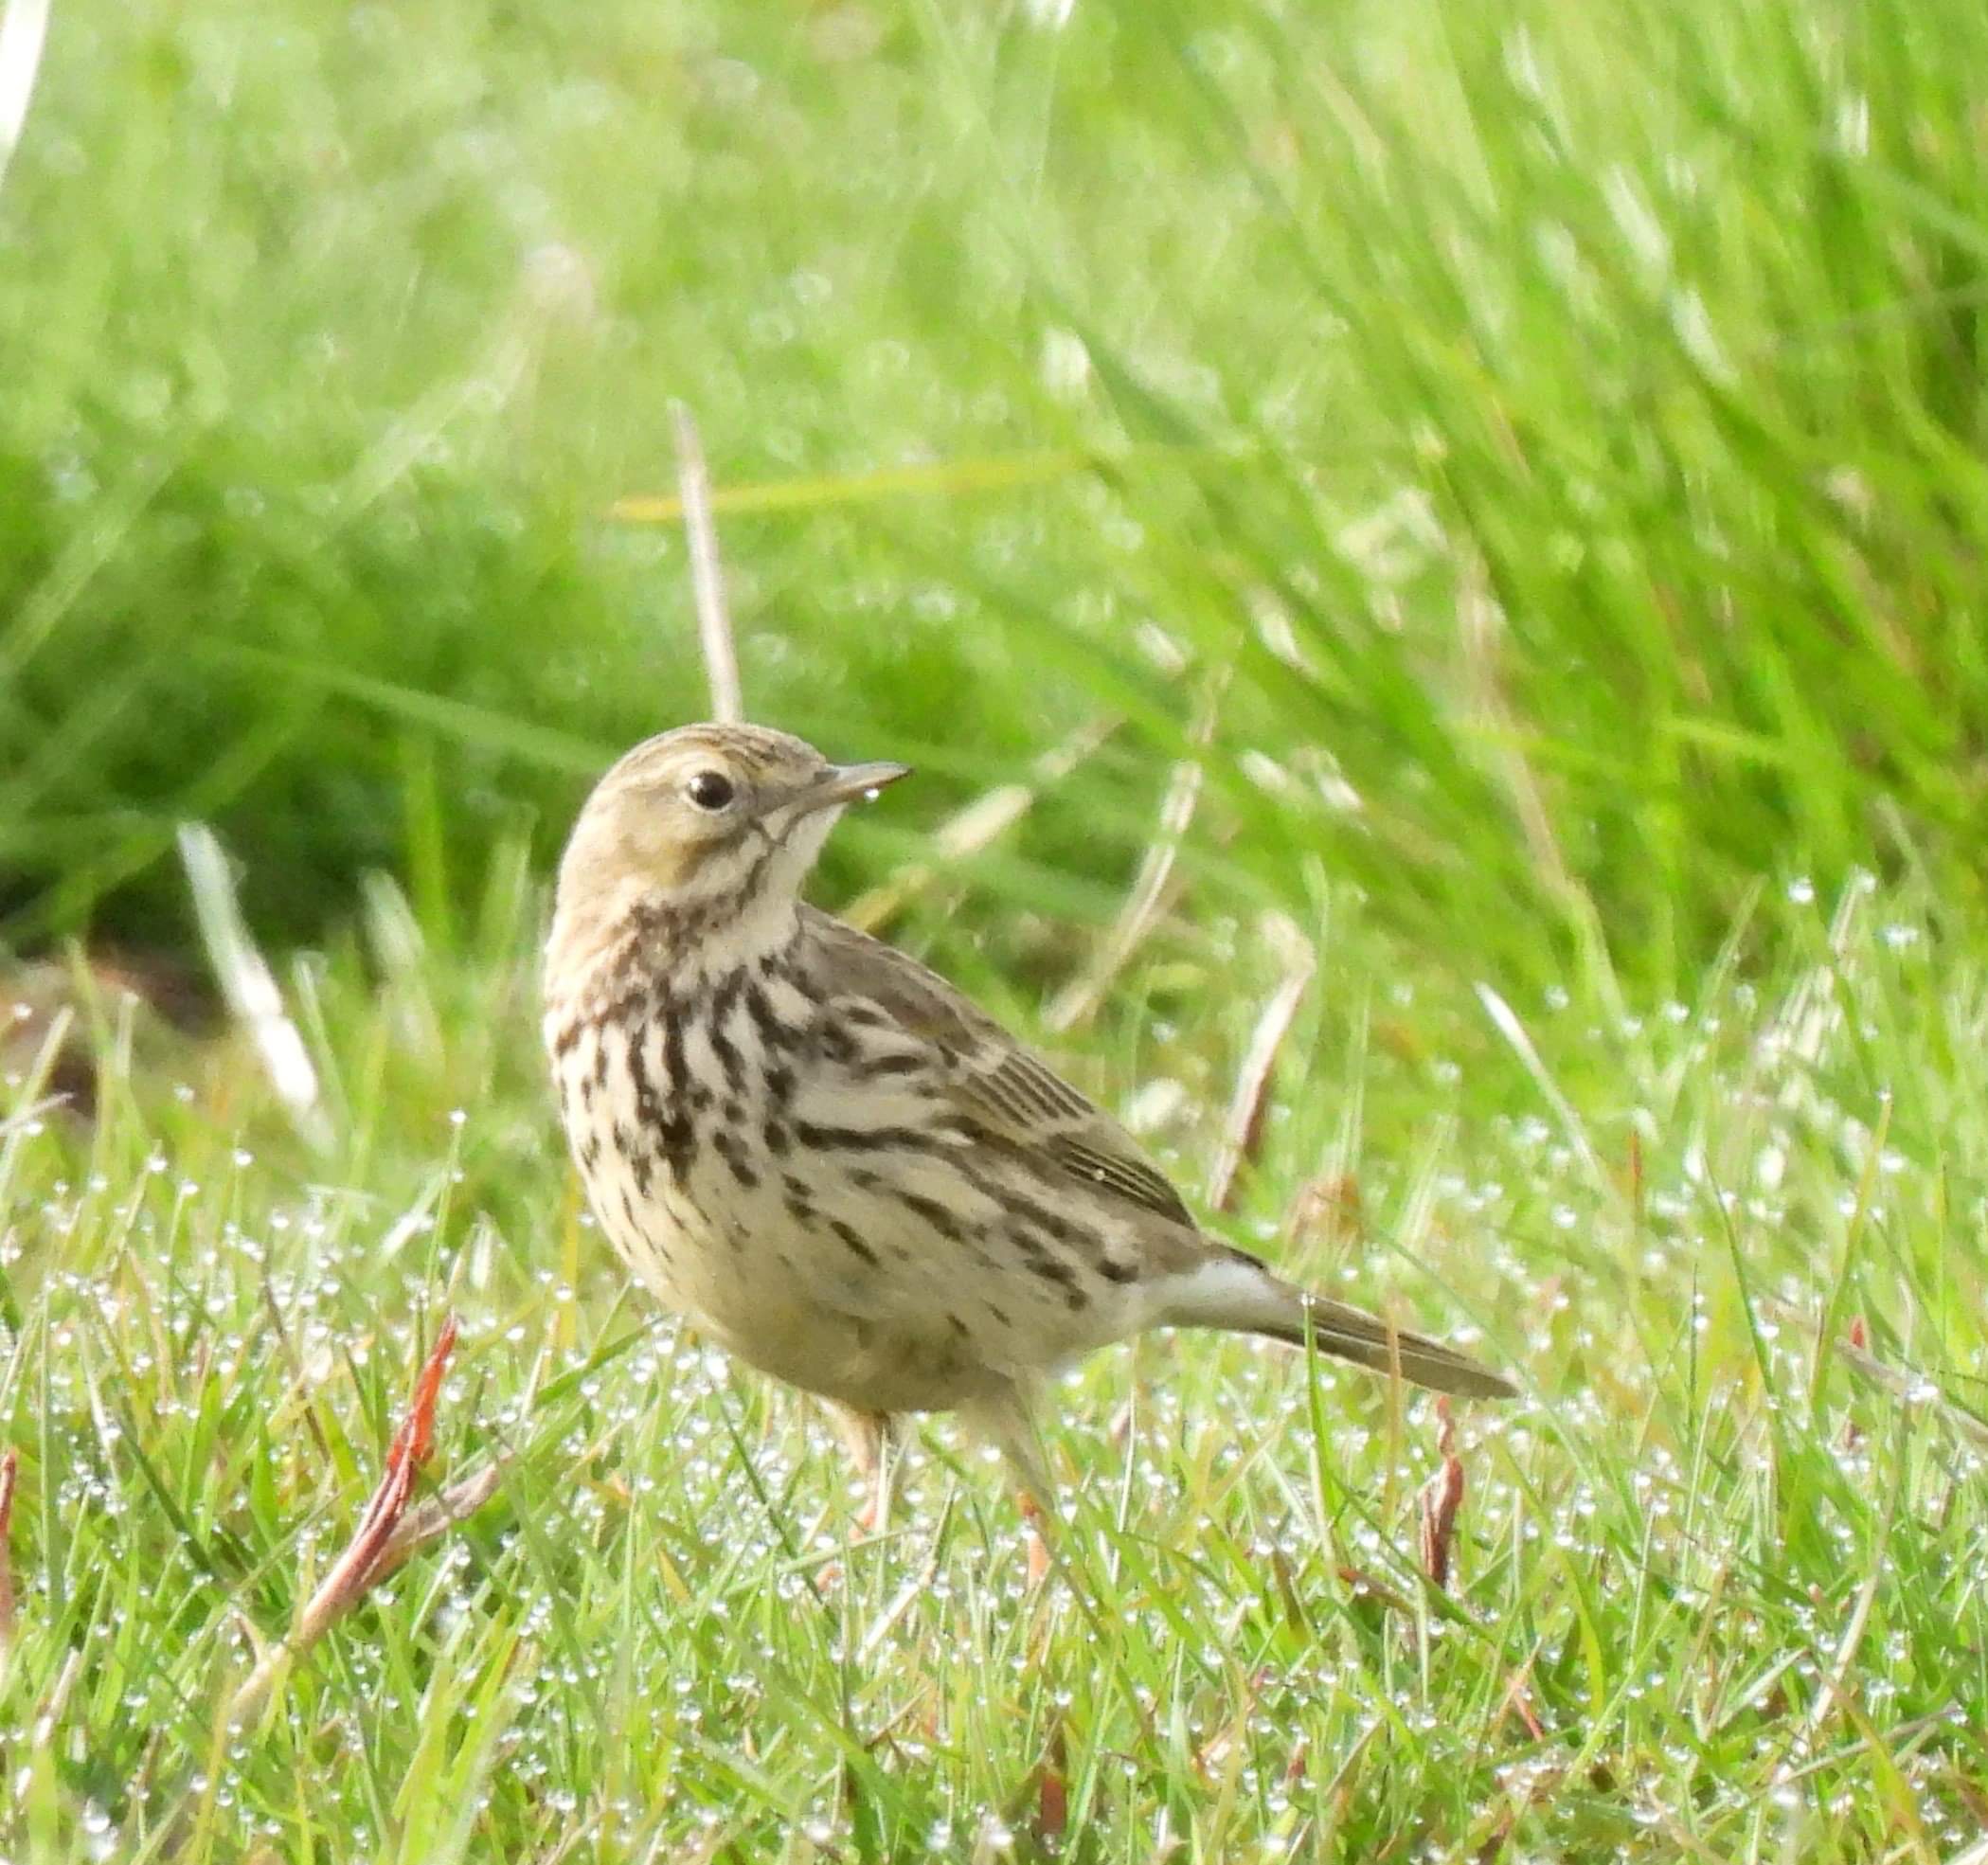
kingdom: Animalia
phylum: Chordata
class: Aves
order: Passeriformes
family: Motacillidae
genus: Anthus
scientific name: Anthus pratensis
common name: Engpiber
